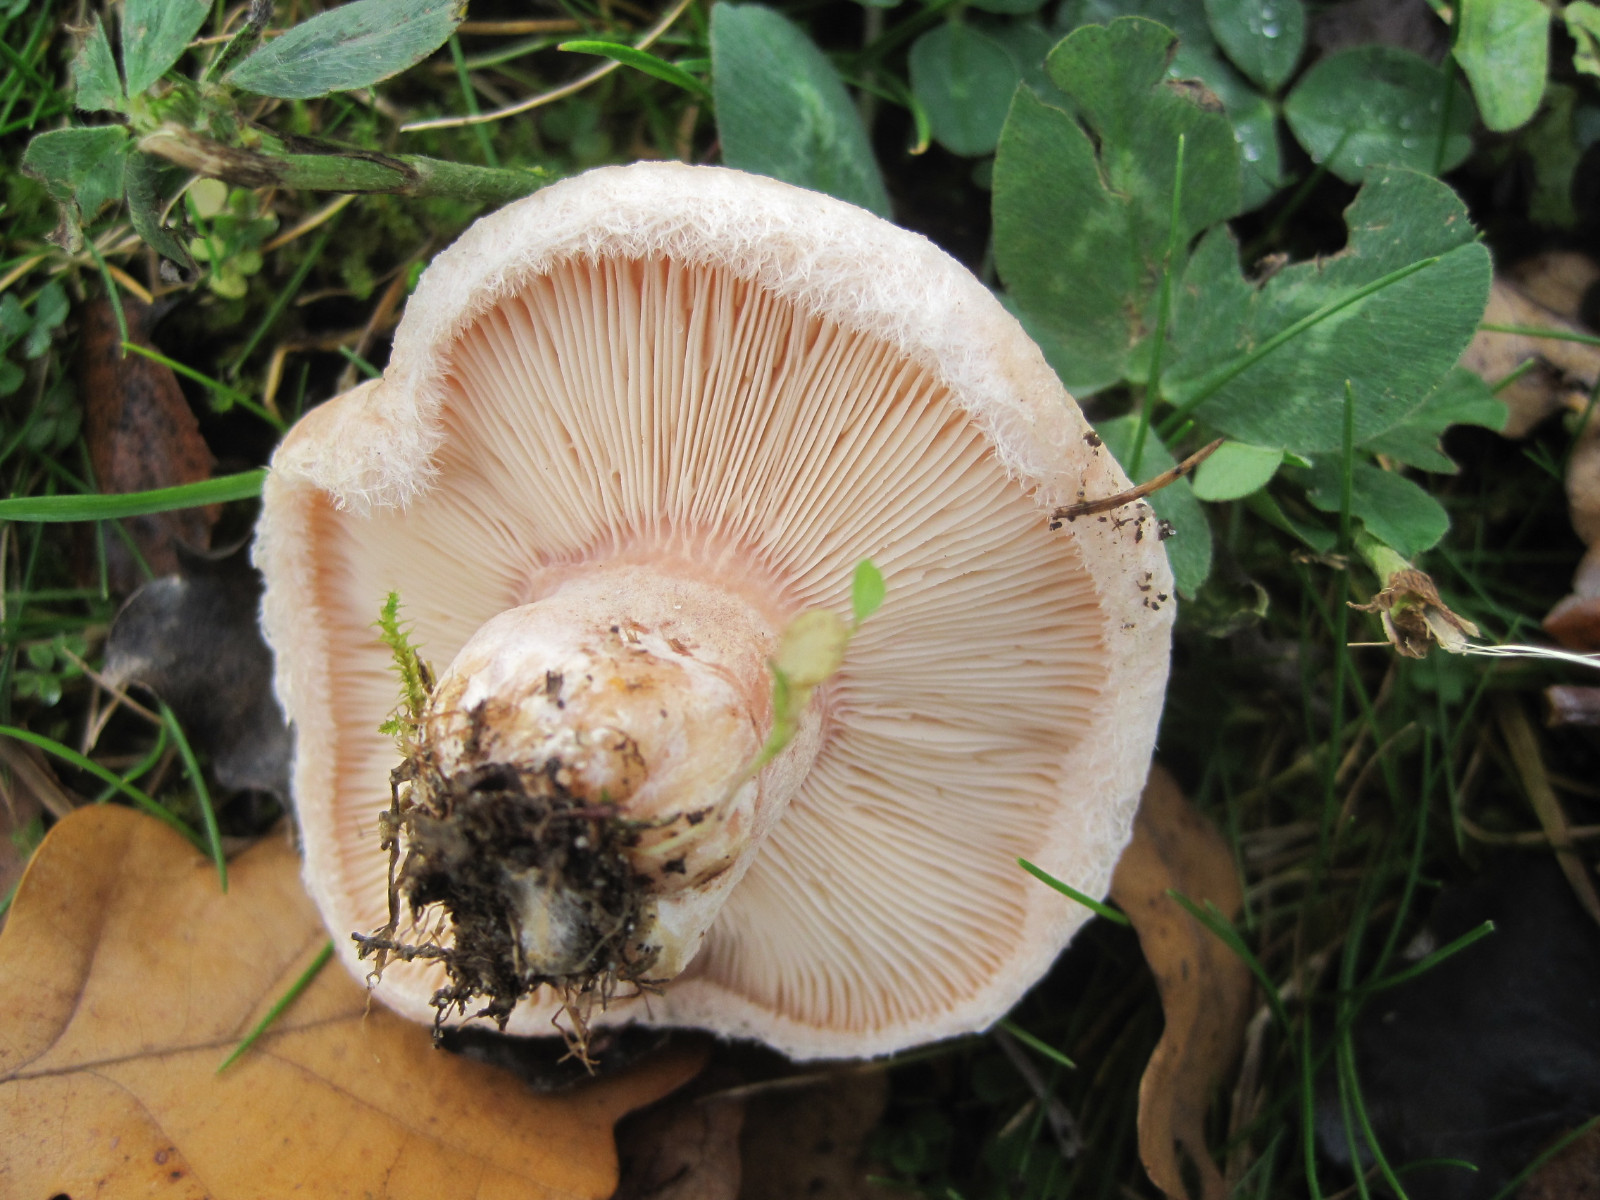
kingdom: Fungi
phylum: Basidiomycota
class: Agaricomycetes
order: Russulales
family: Russulaceae
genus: Lactarius
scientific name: Lactarius pubescens
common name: dunet mælkehat
